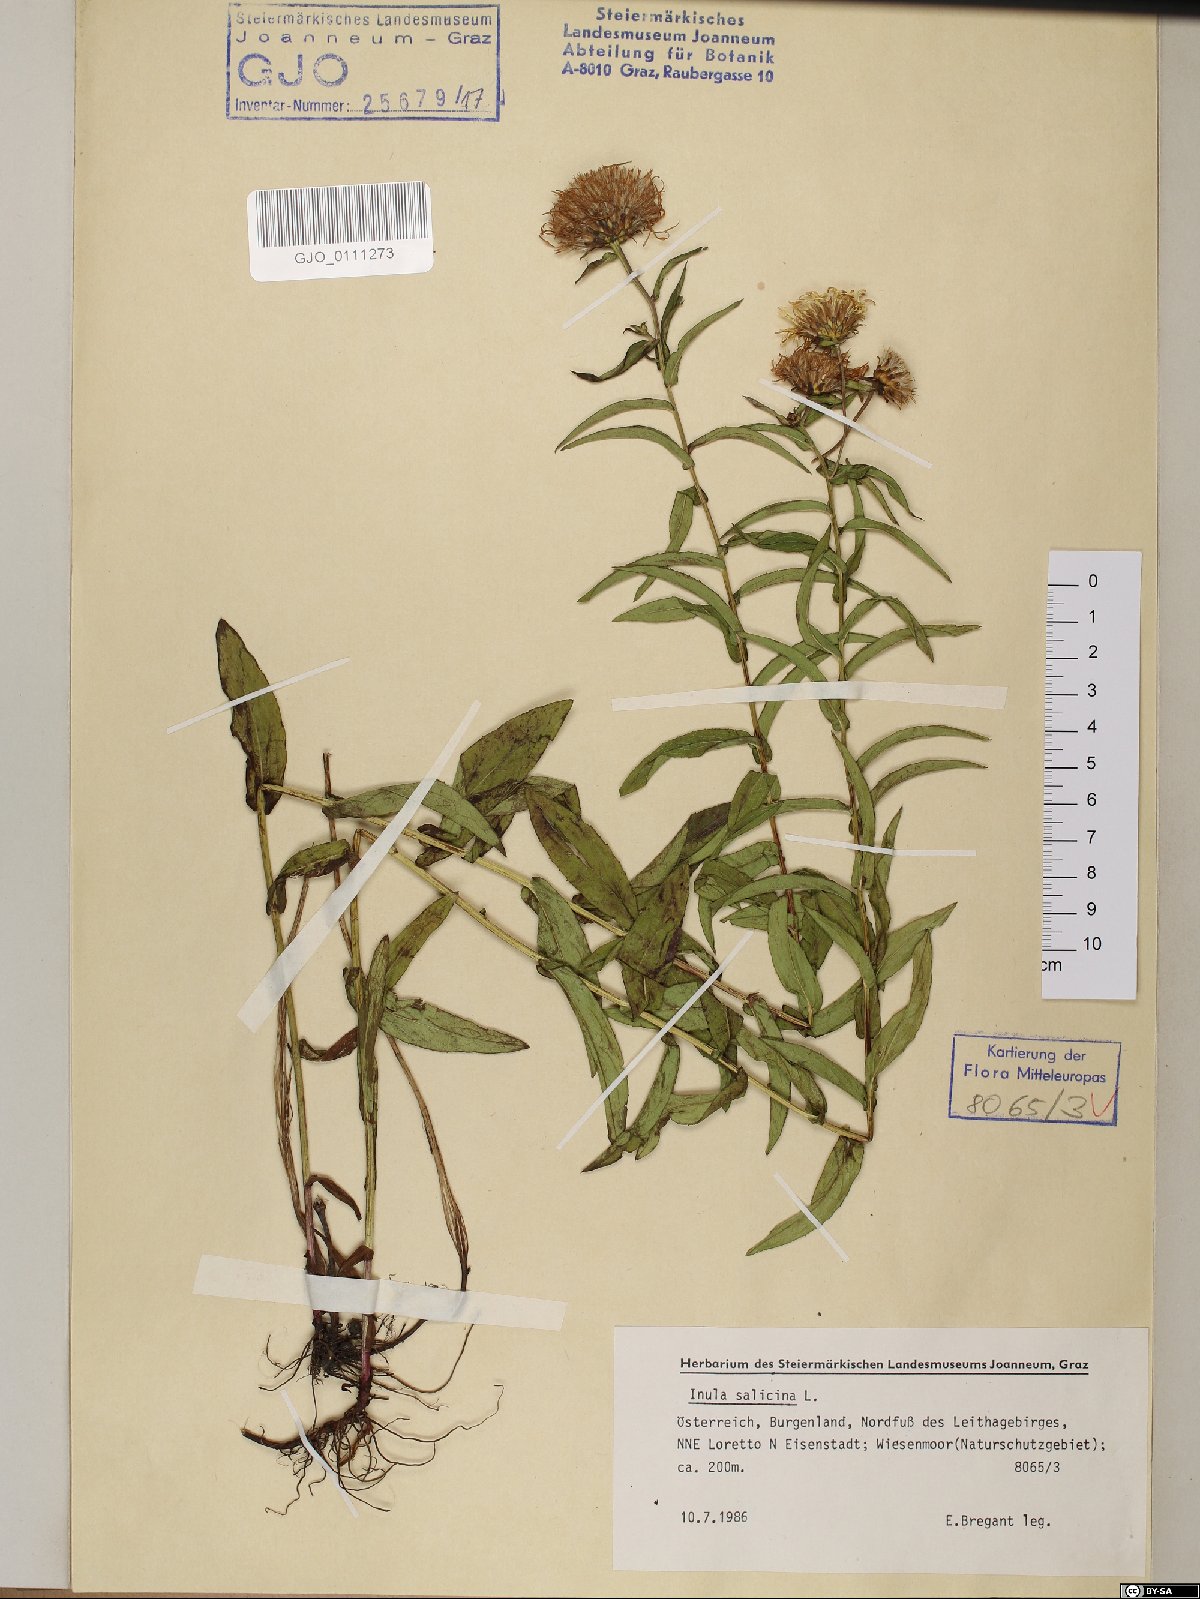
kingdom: Plantae
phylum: Tracheophyta
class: Magnoliopsida
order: Asterales
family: Asteraceae
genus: Pentanema
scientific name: Pentanema salicinum
